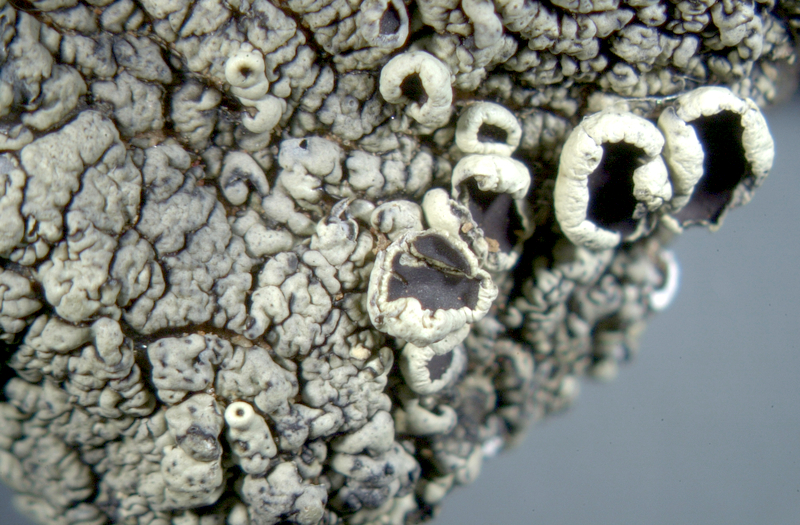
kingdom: Fungi
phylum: Ascomycota
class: Lecanoromycetes
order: Lecanorales
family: Parmeliaceae
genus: Xanthoparmelia
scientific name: Xanthoparmelia hottentotta
